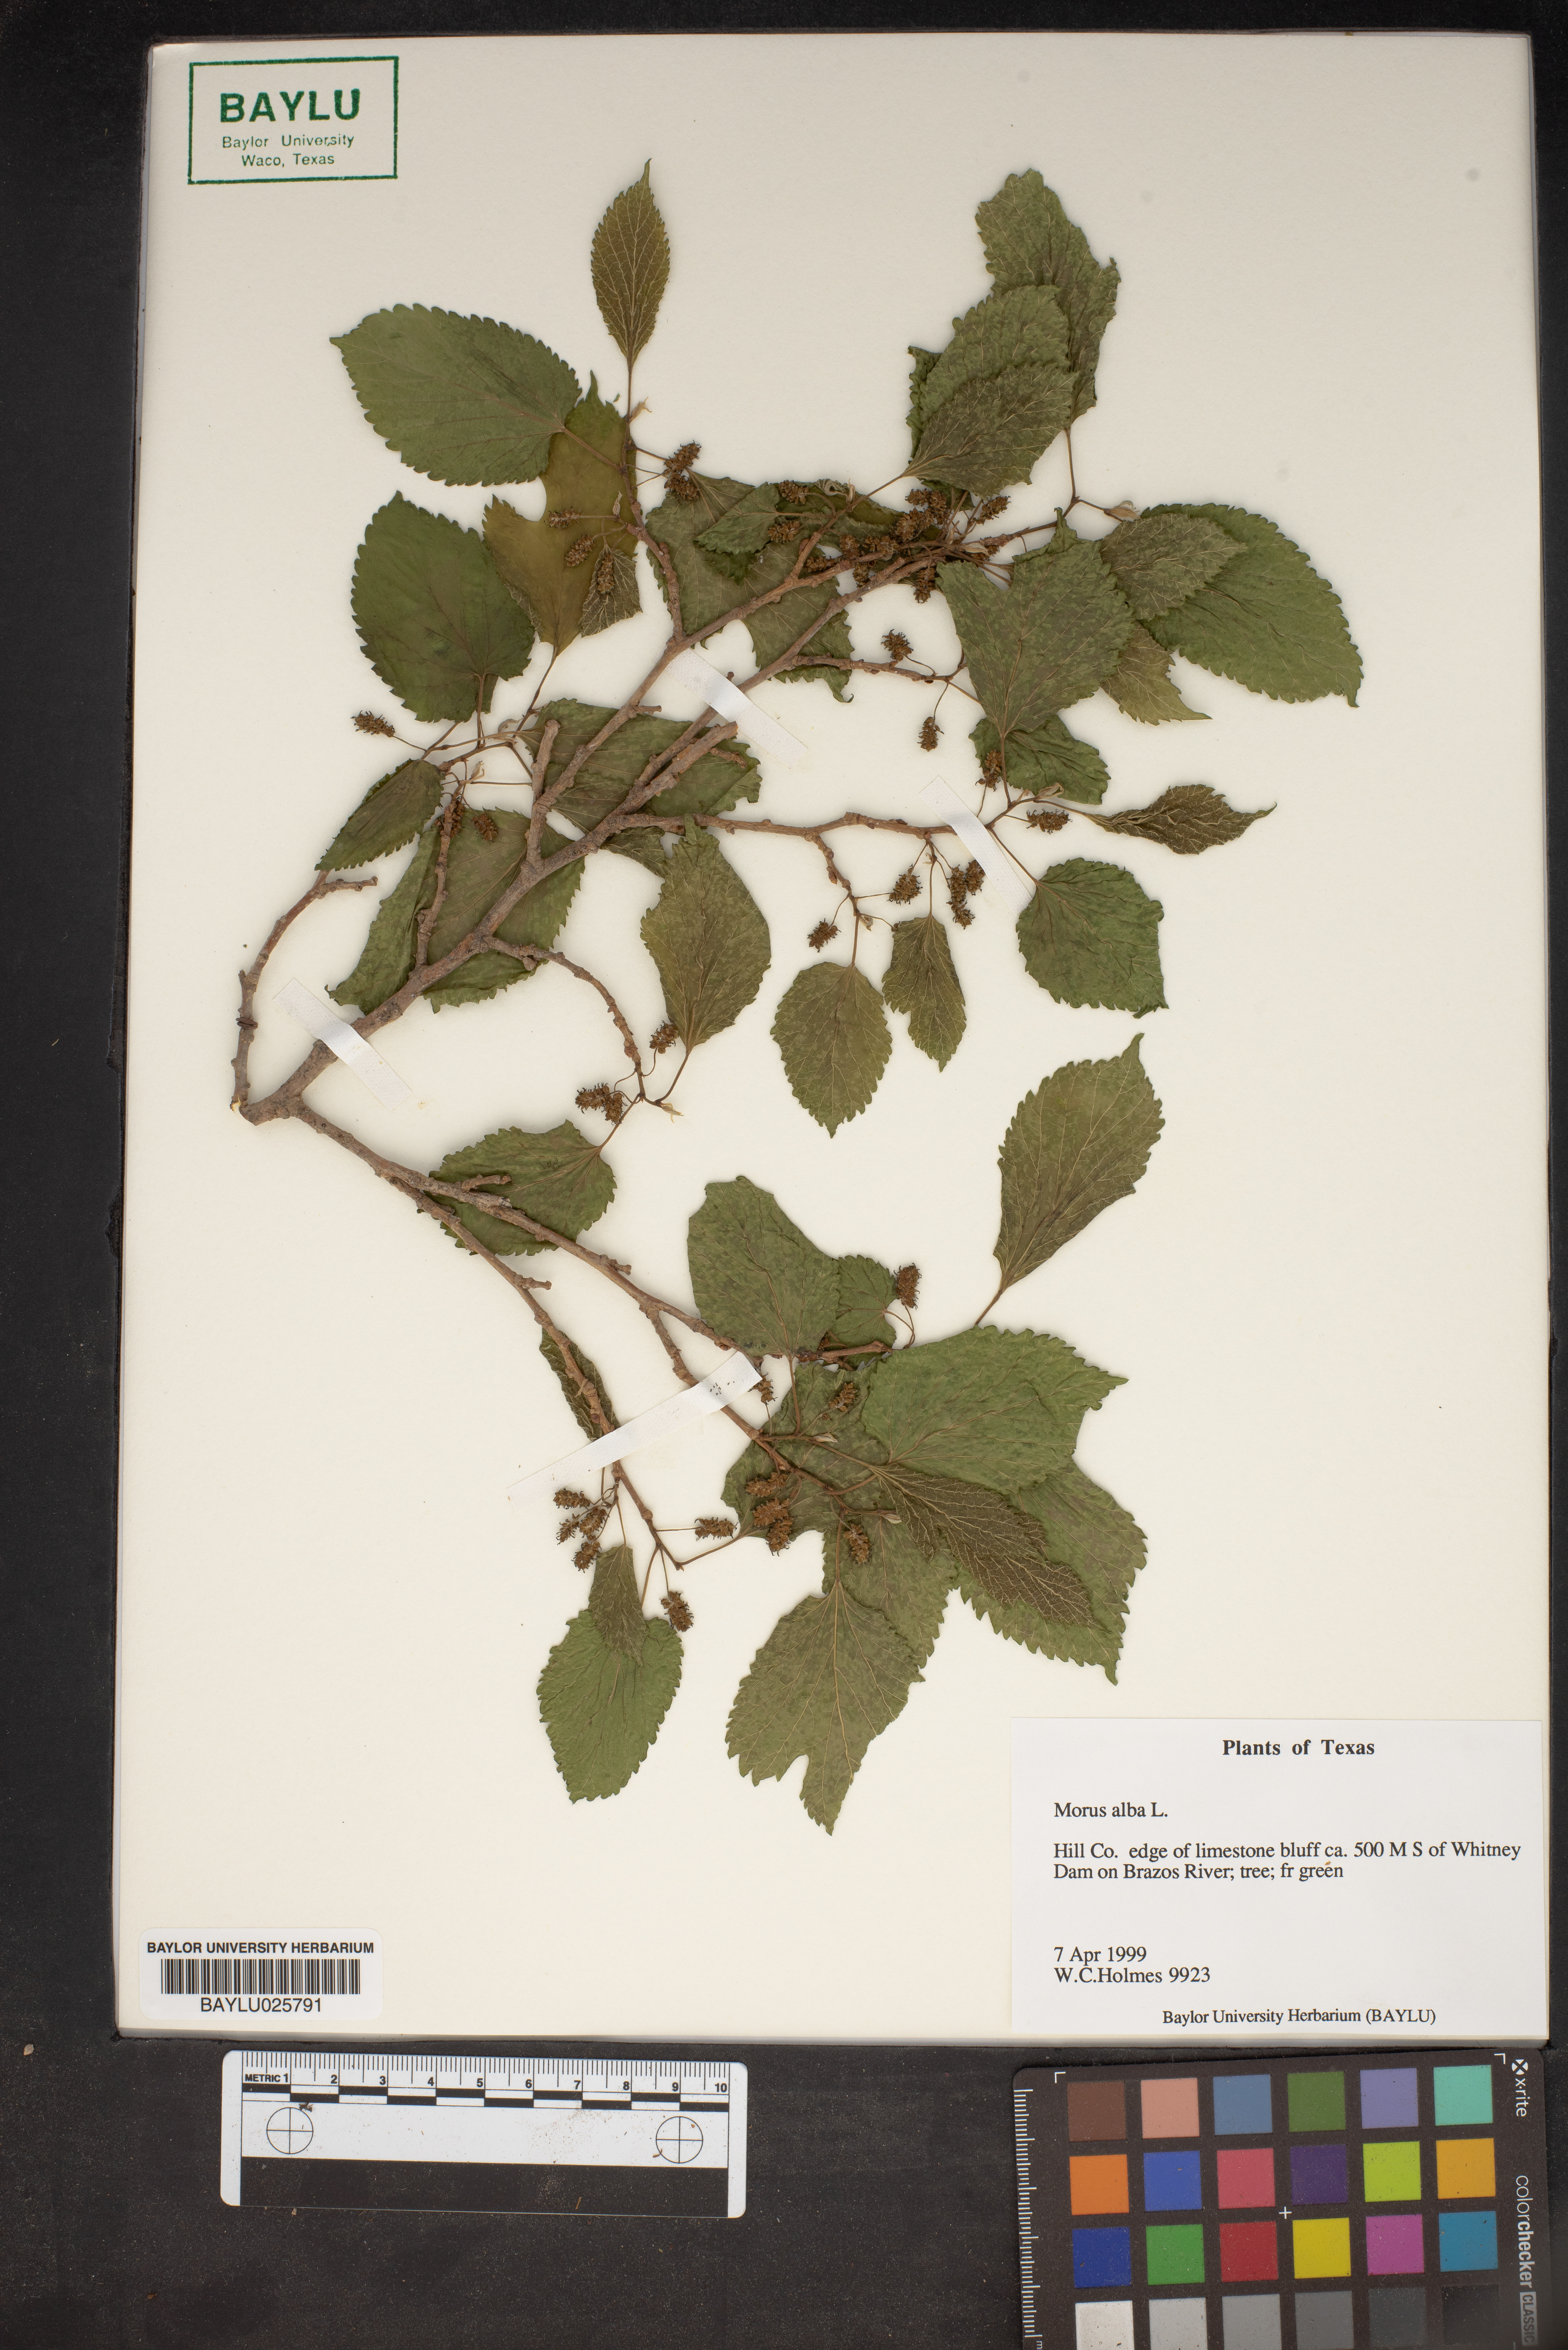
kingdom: Plantae
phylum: Tracheophyta
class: Magnoliopsida
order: Rosales
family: Moraceae
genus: Morus
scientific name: Morus alba
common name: White mulberry
